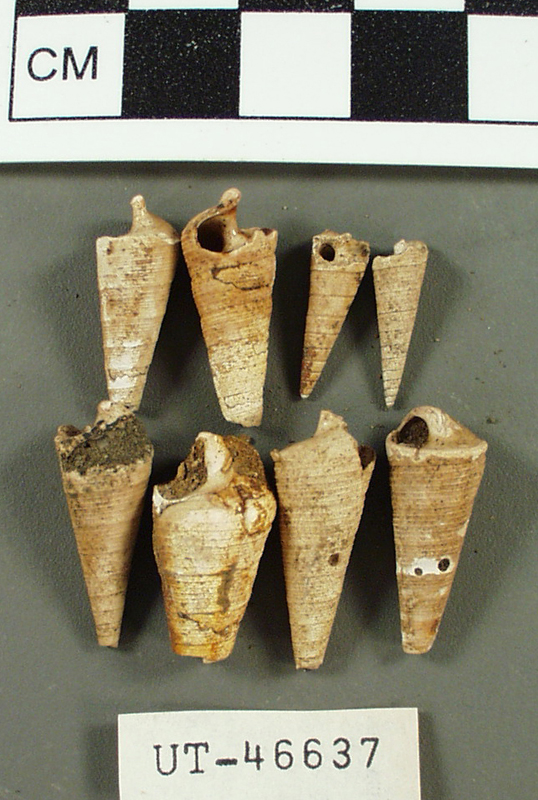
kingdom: Animalia
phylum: Mollusca
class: Gastropoda
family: Turritellidae
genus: Mesalia
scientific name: Mesalia claibornensis
